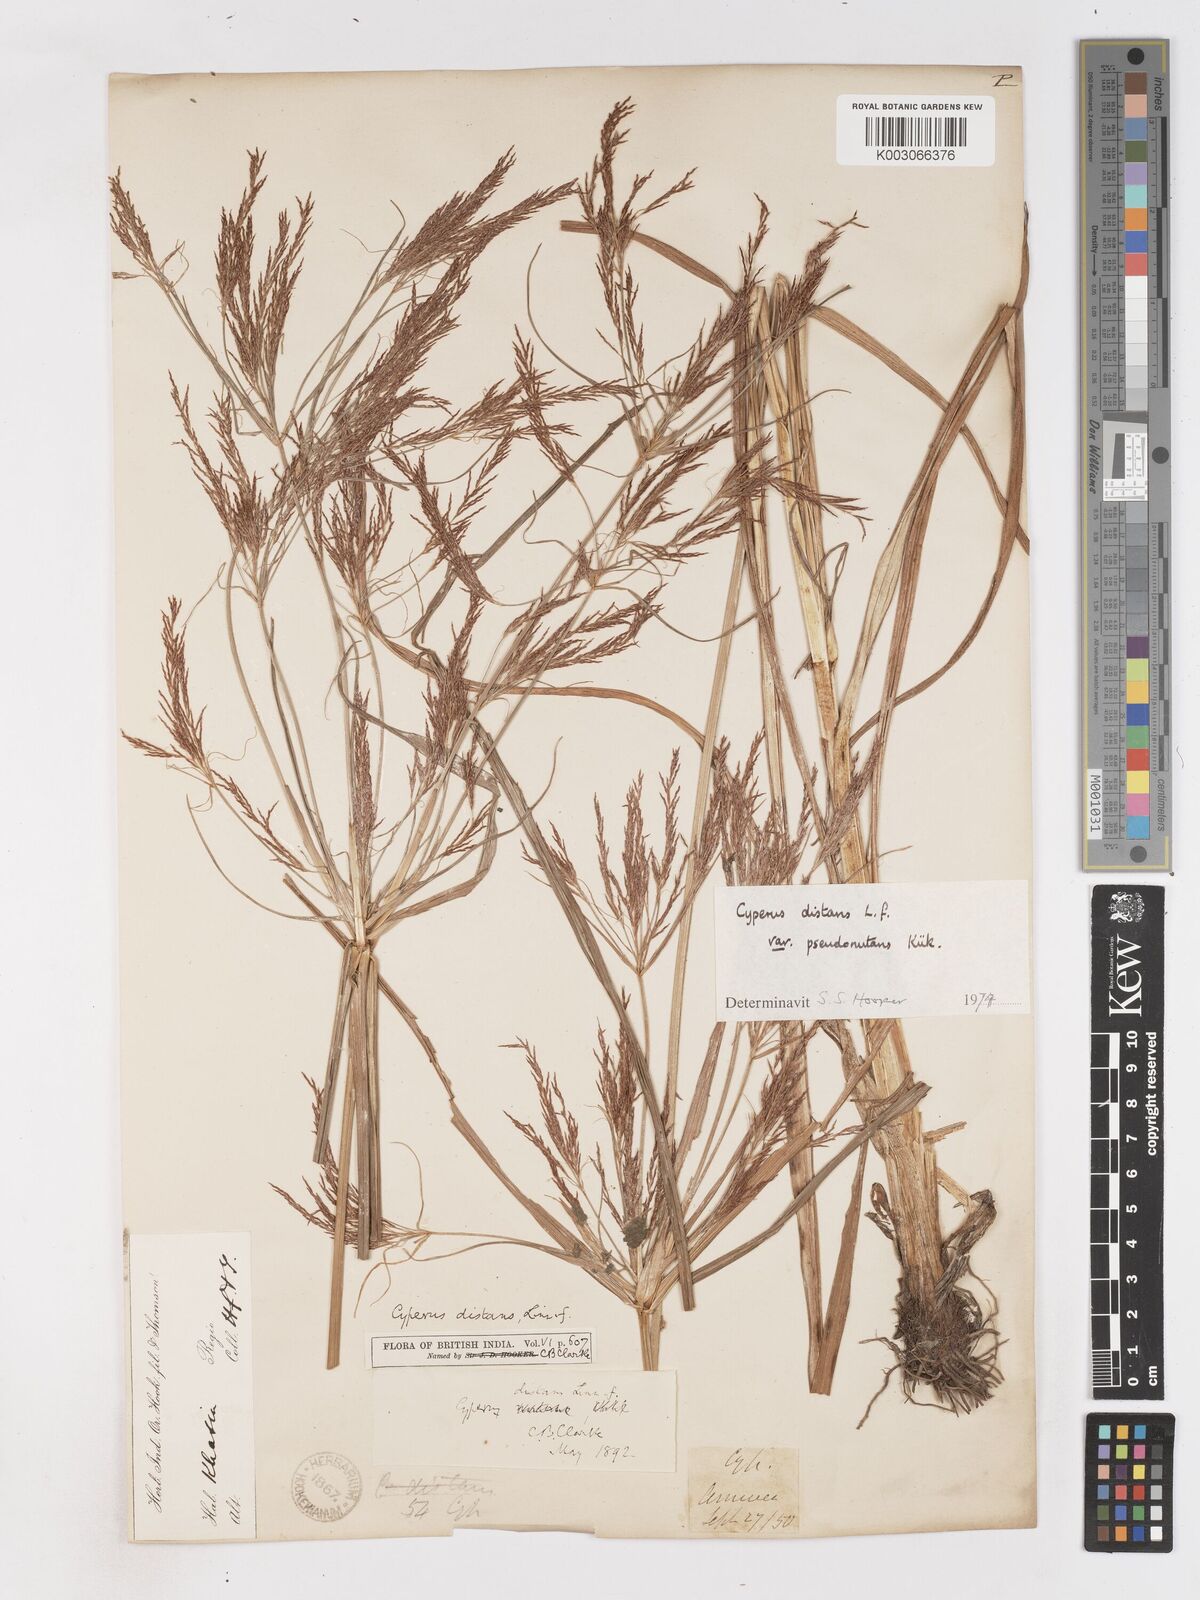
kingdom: Plantae
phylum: Tracheophyta
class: Liliopsida
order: Poales
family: Cyperaceae
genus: Cyperus
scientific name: Cyperus distans
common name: Slender cyperus
